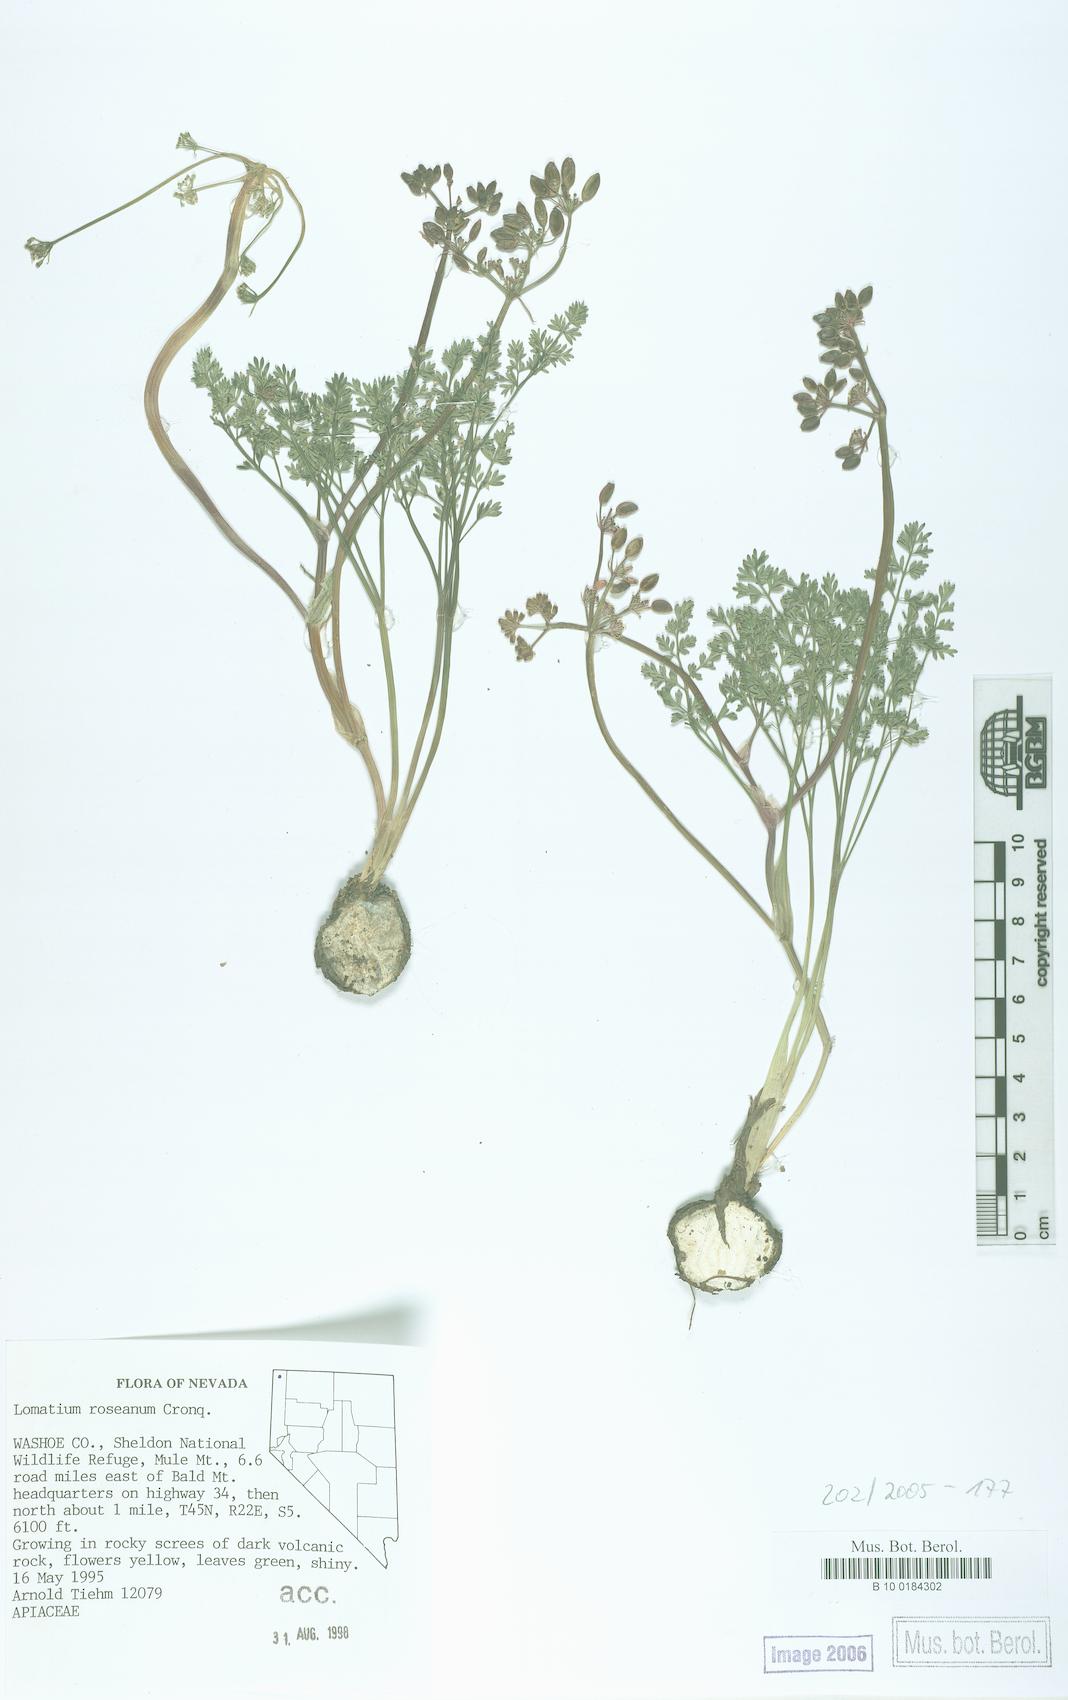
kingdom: Plantae
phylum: Tracheophyta
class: Magnoliopsida
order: Apiales
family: Apiaceae
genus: Lomatium
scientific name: Lomatium roseanum
